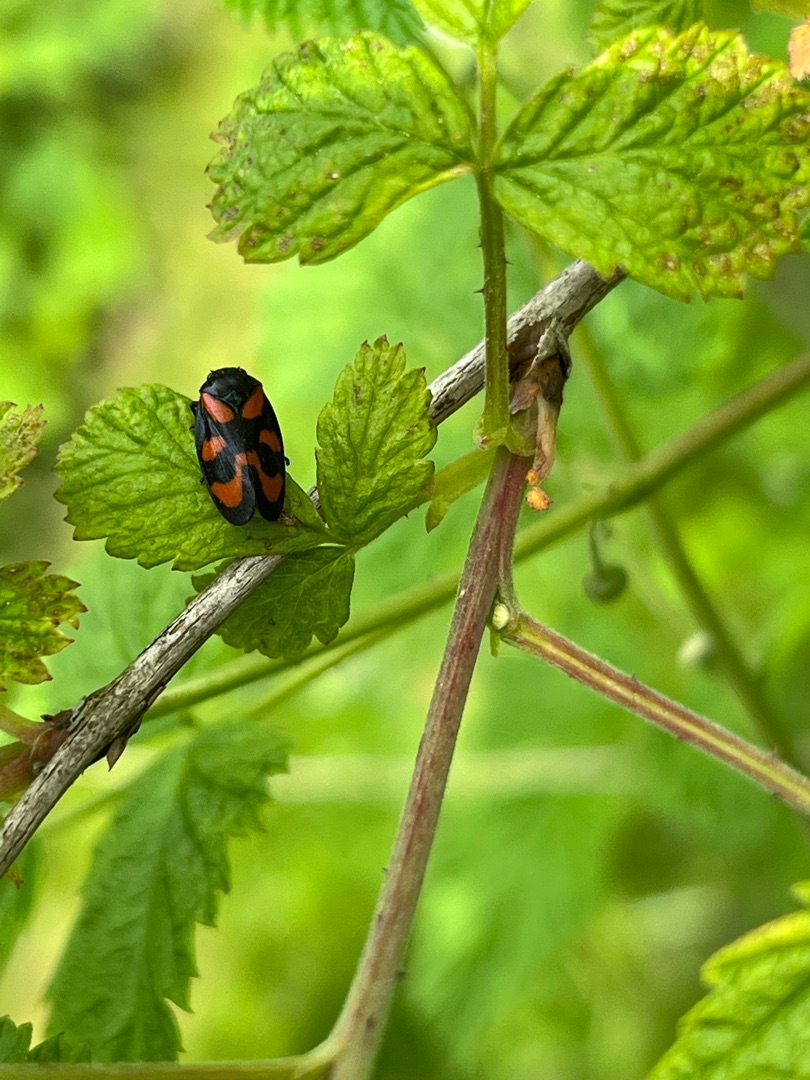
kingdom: Animalia
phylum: Arthropoda
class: Insecta
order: Hemiptera
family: Cercopidae
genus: Cercopis
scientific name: Cercopis vulnerata
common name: Blodcikade
